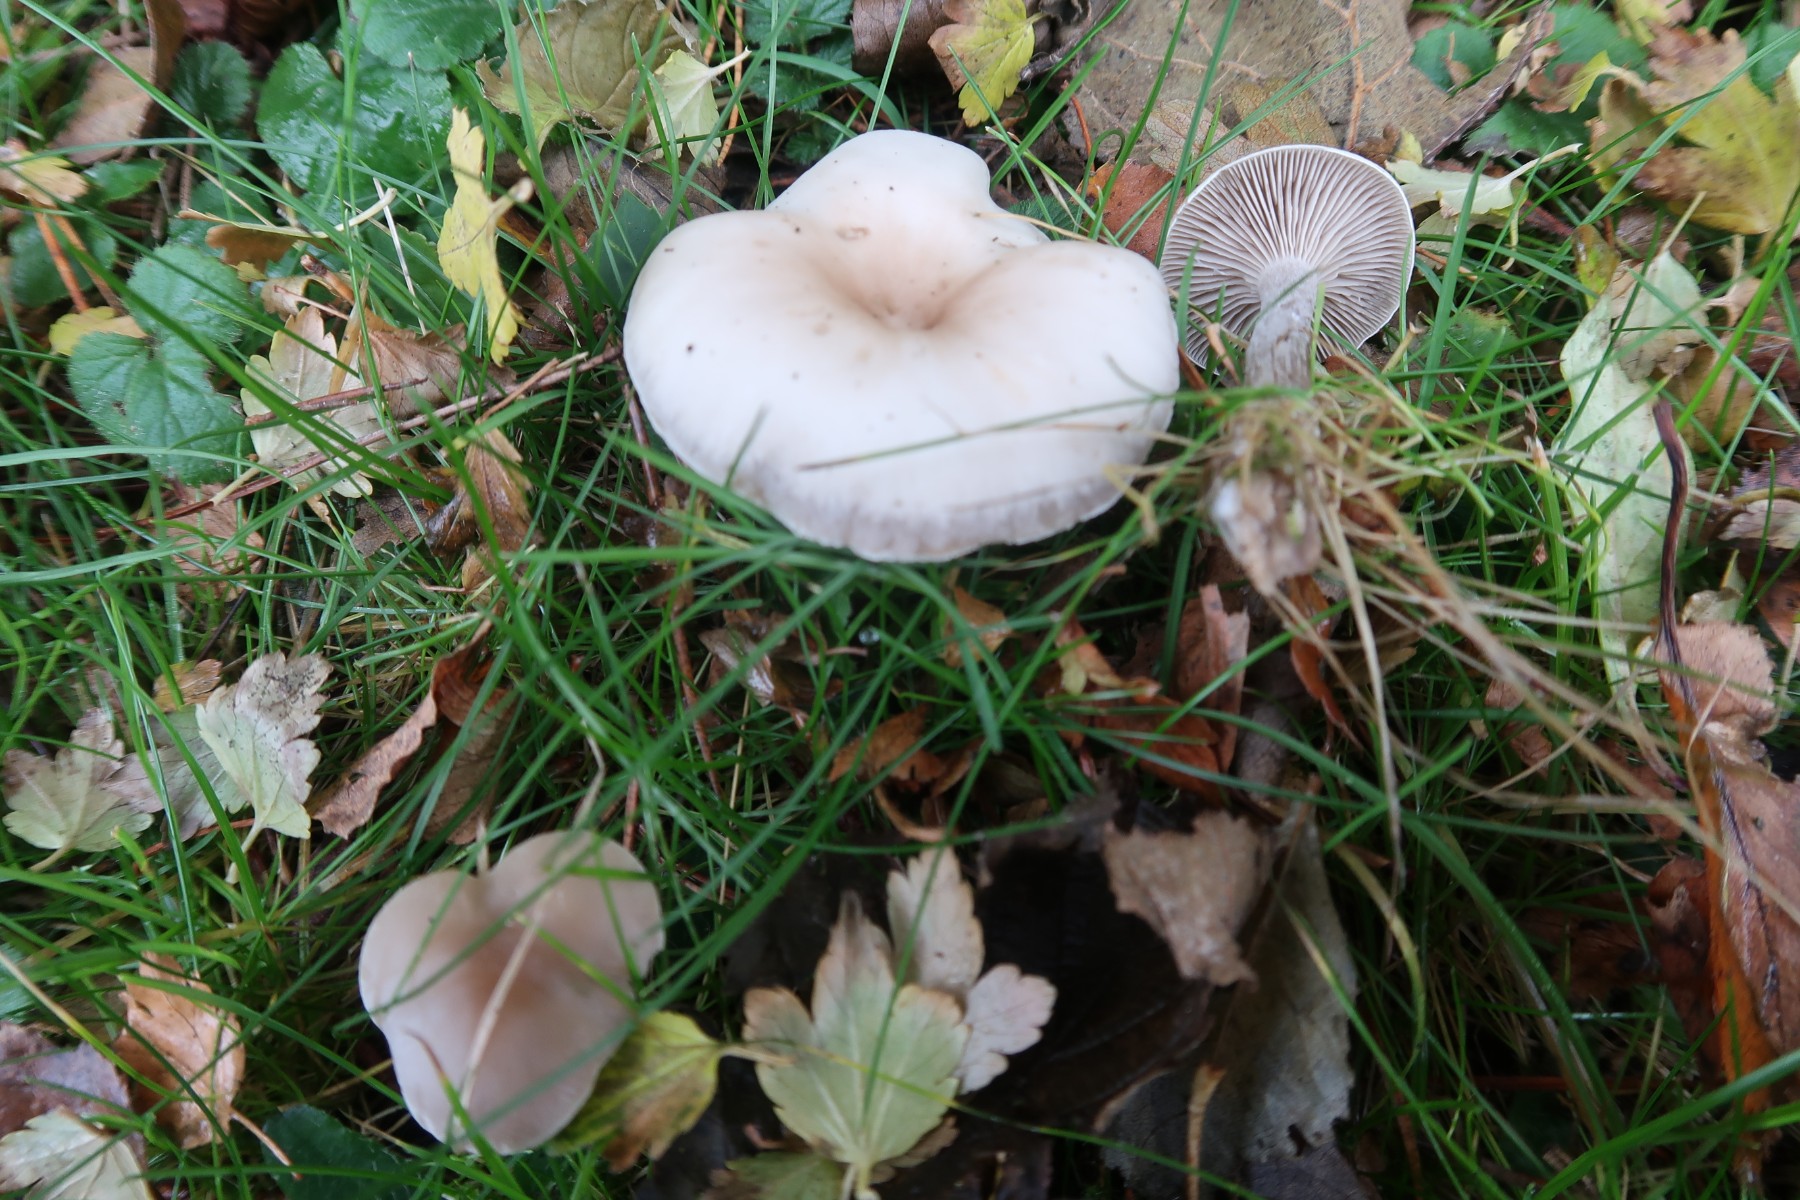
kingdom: Fungi
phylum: Basidiomycota
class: Agaricomycetes
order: Agaricales
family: Tricholomataceae
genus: Clitocybe
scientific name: Clitocybe metachroa
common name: grå tragthat
